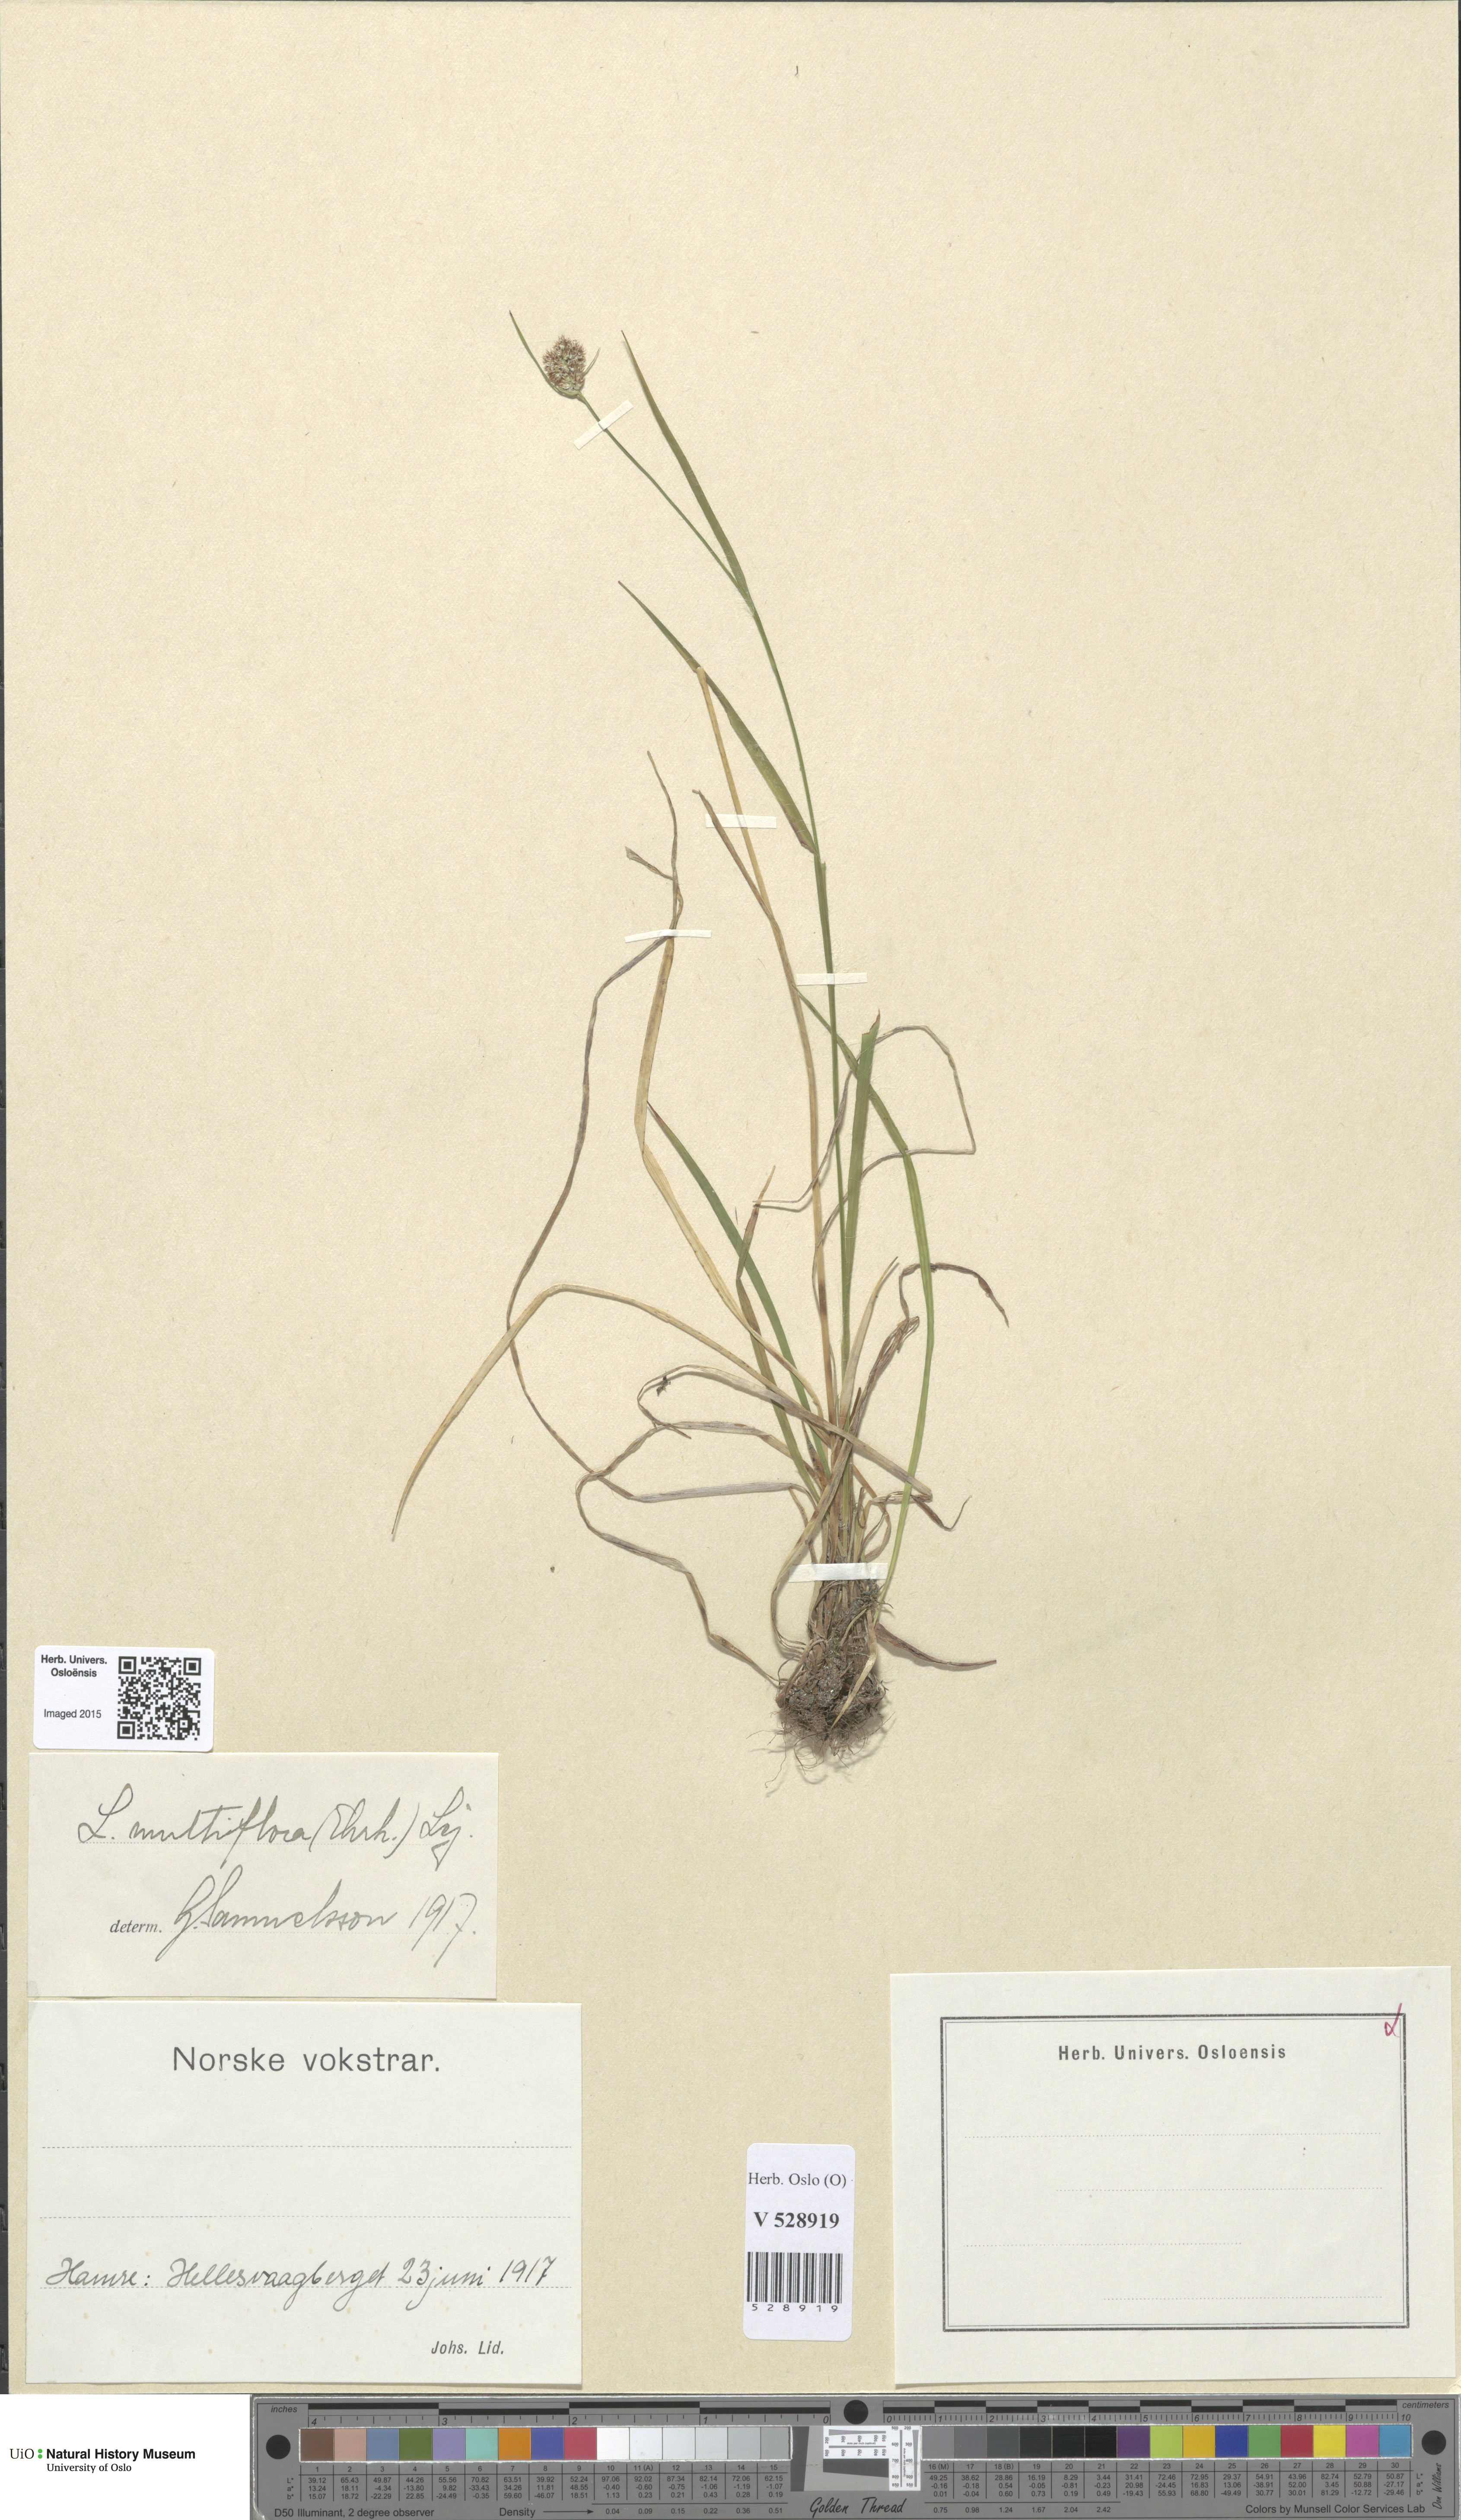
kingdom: Plantae
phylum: Tracheophyta
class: Liliopsida
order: Poales
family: Juncaceae
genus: Luzula
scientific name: Luzula multiflora
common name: Heath wood-rush
